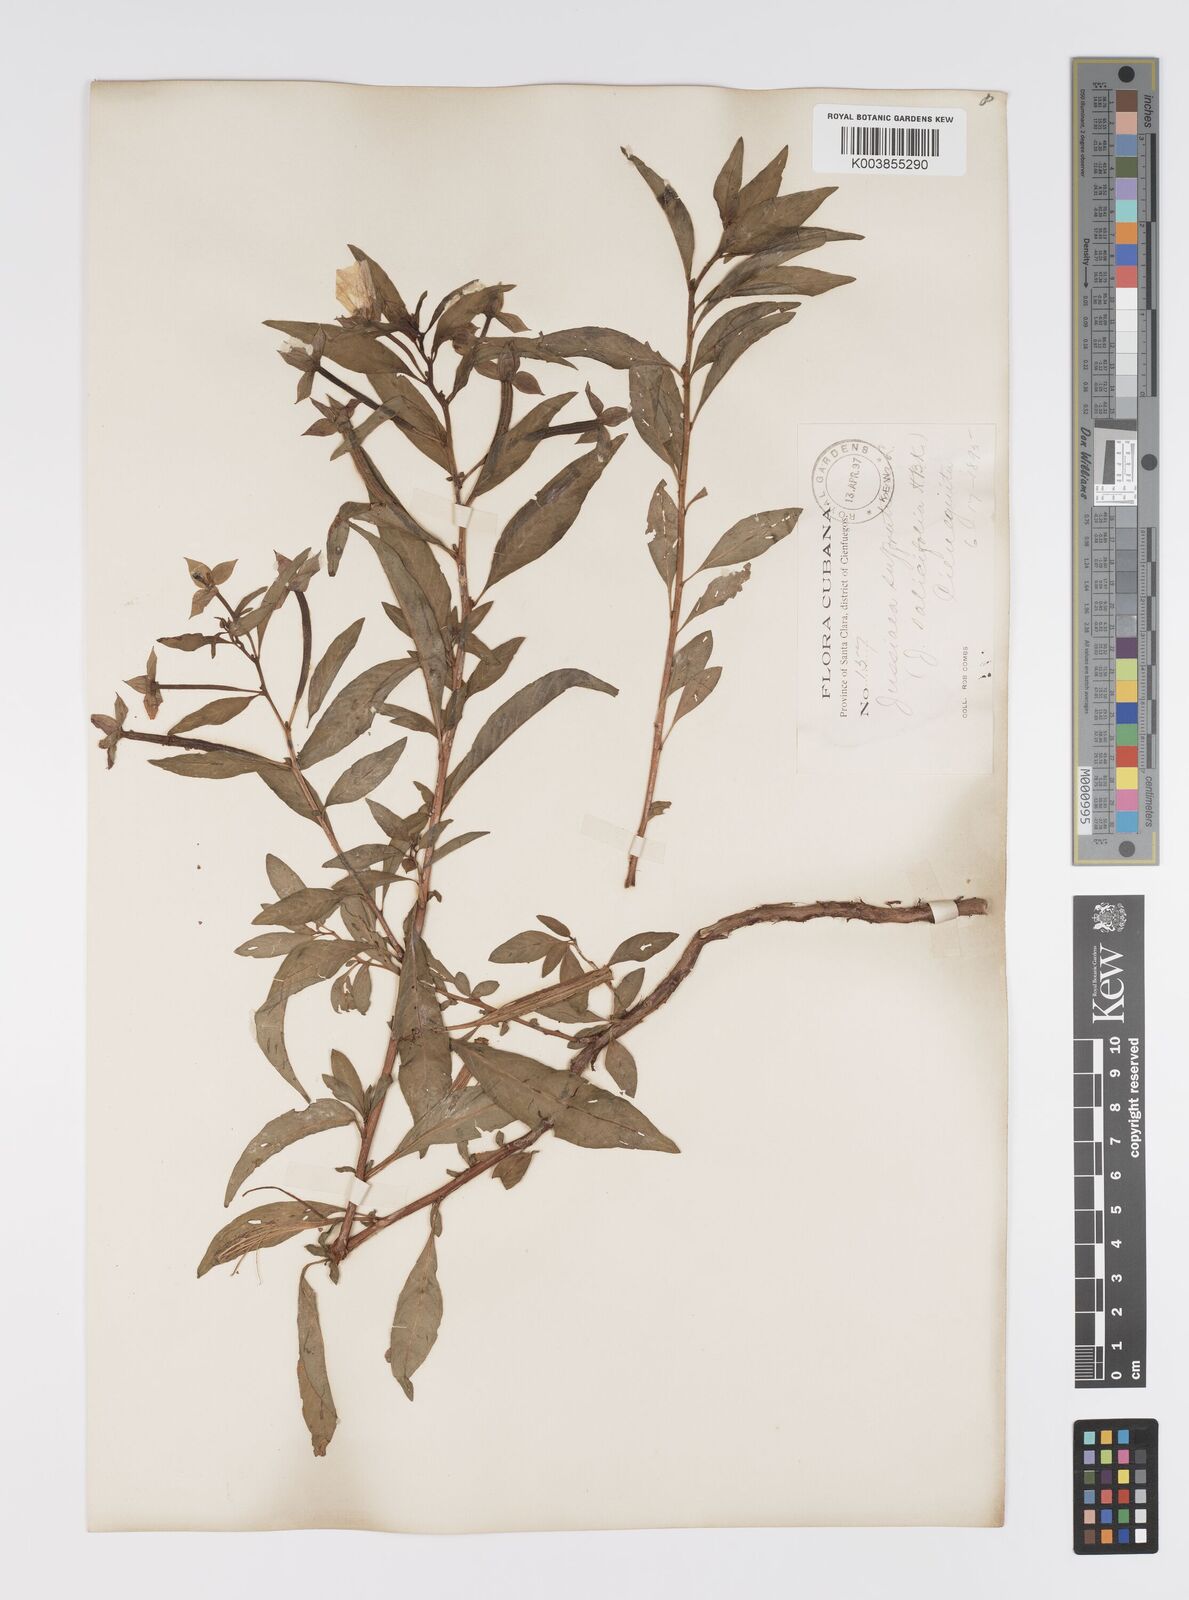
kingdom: Plantae
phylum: Tracheophyta
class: Magnoliopsida
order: Myrtales
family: Onagraceae
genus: Ludwigia
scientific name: Ludwigia octovalvis
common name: Water-primrose
